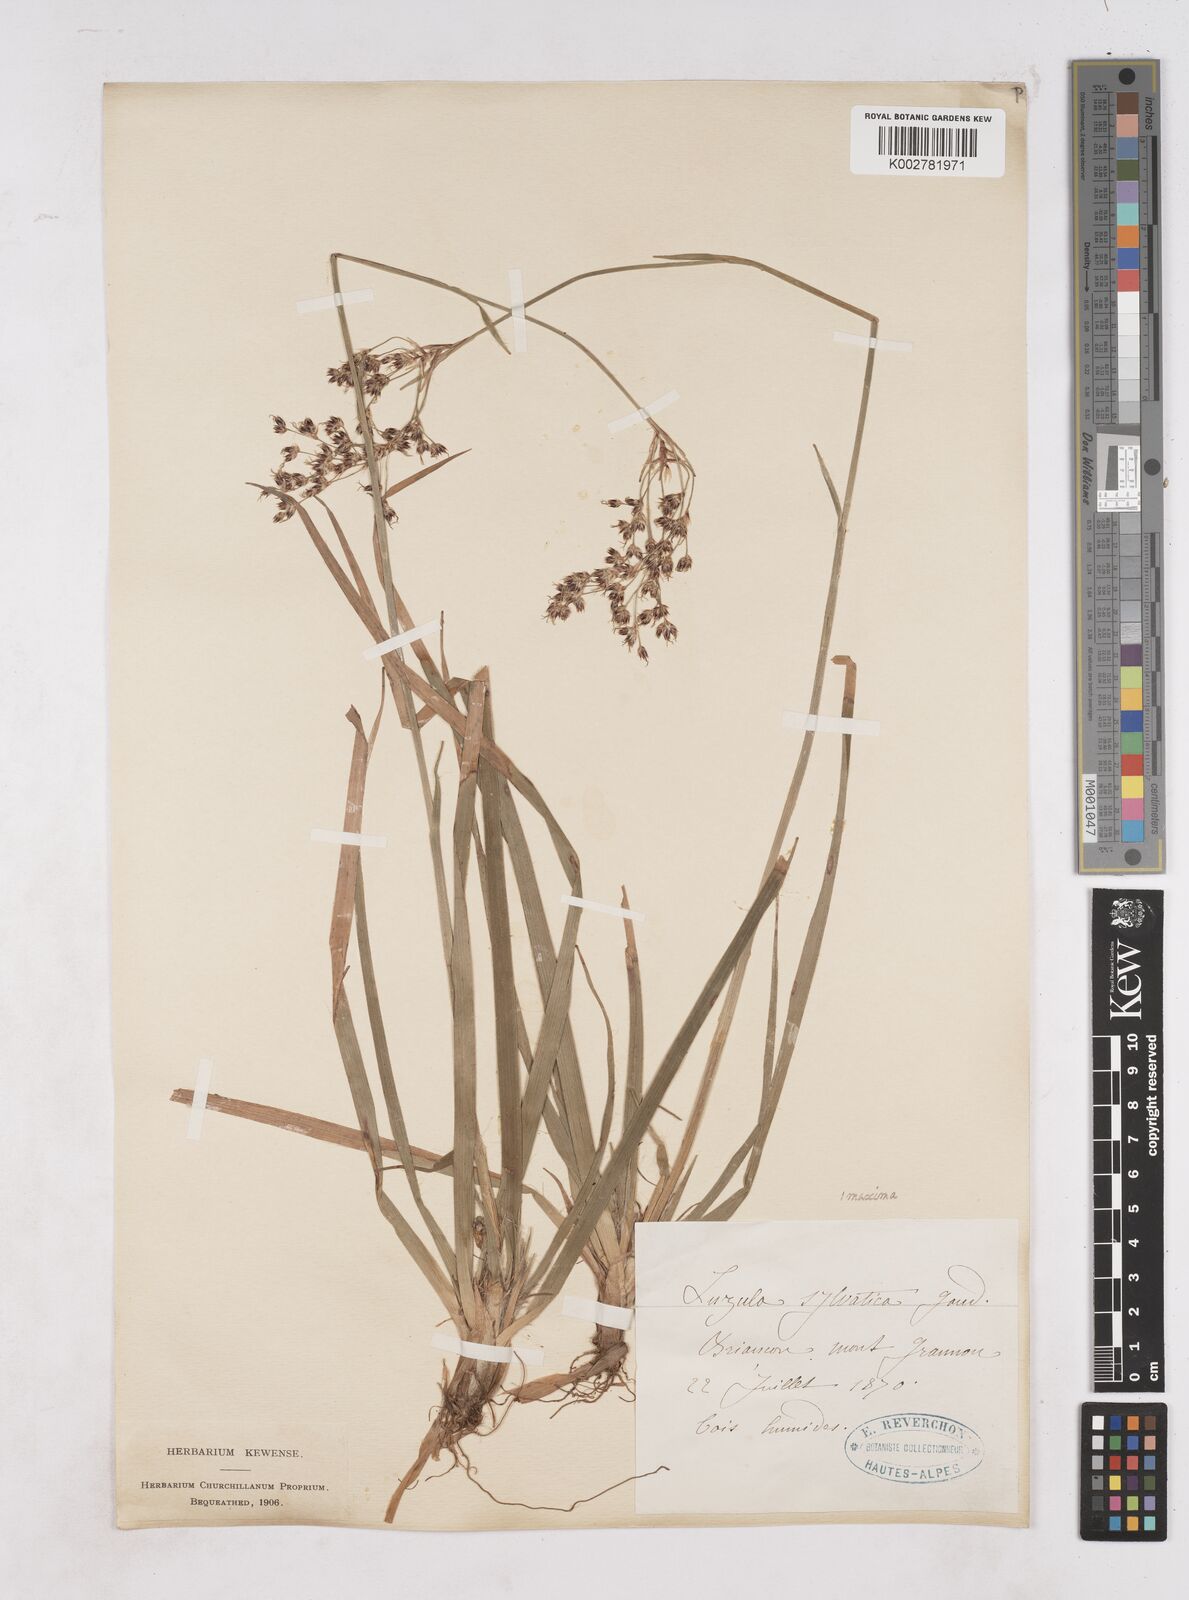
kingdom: Plantae
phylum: Tracheophyta
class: Liliopsida
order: Poales
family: Juncaceae
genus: Luzula
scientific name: Luzula sylvatica
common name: Great wood-rush
